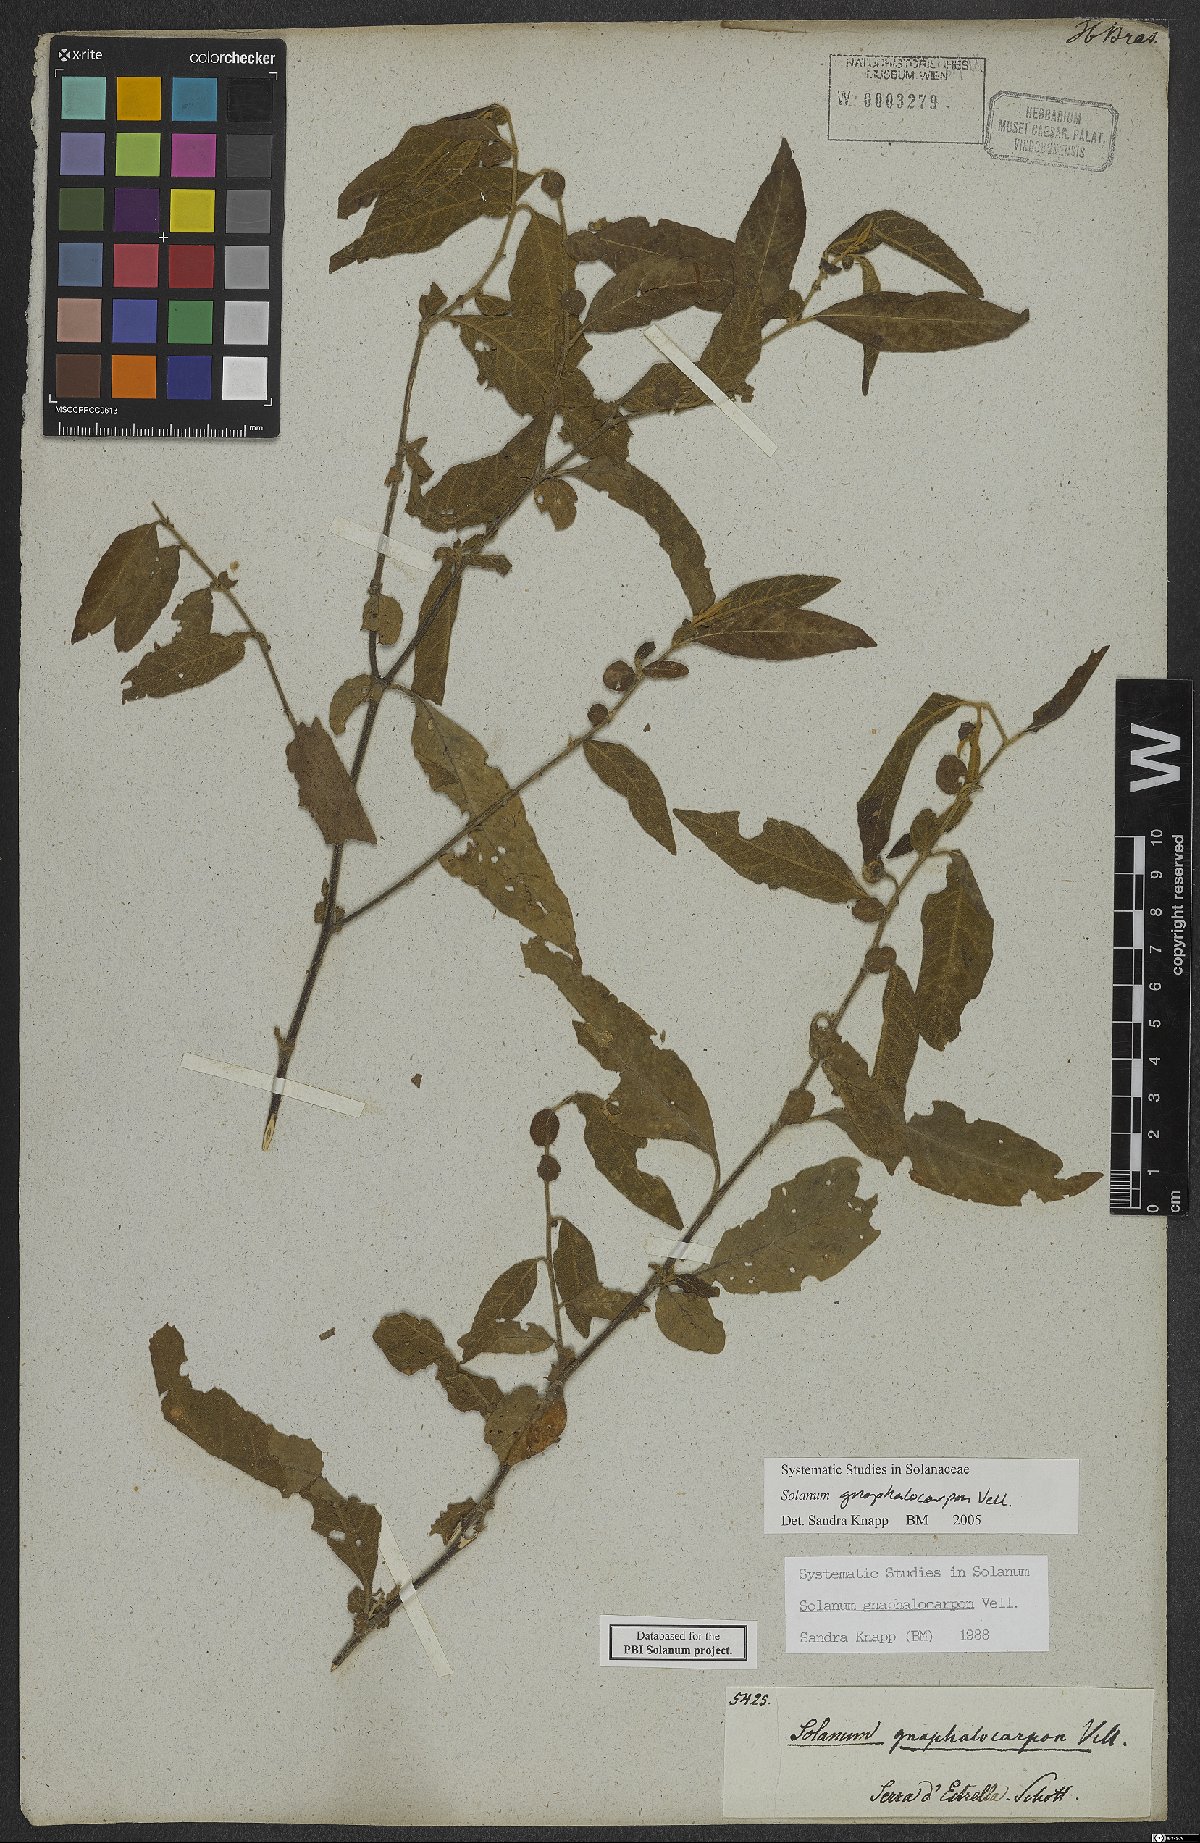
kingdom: Plantae
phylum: Tracheophyta
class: Magnoliopsida
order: Solanales
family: Solanaceae
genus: Solanum
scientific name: Solanum gnaphalocarpum
